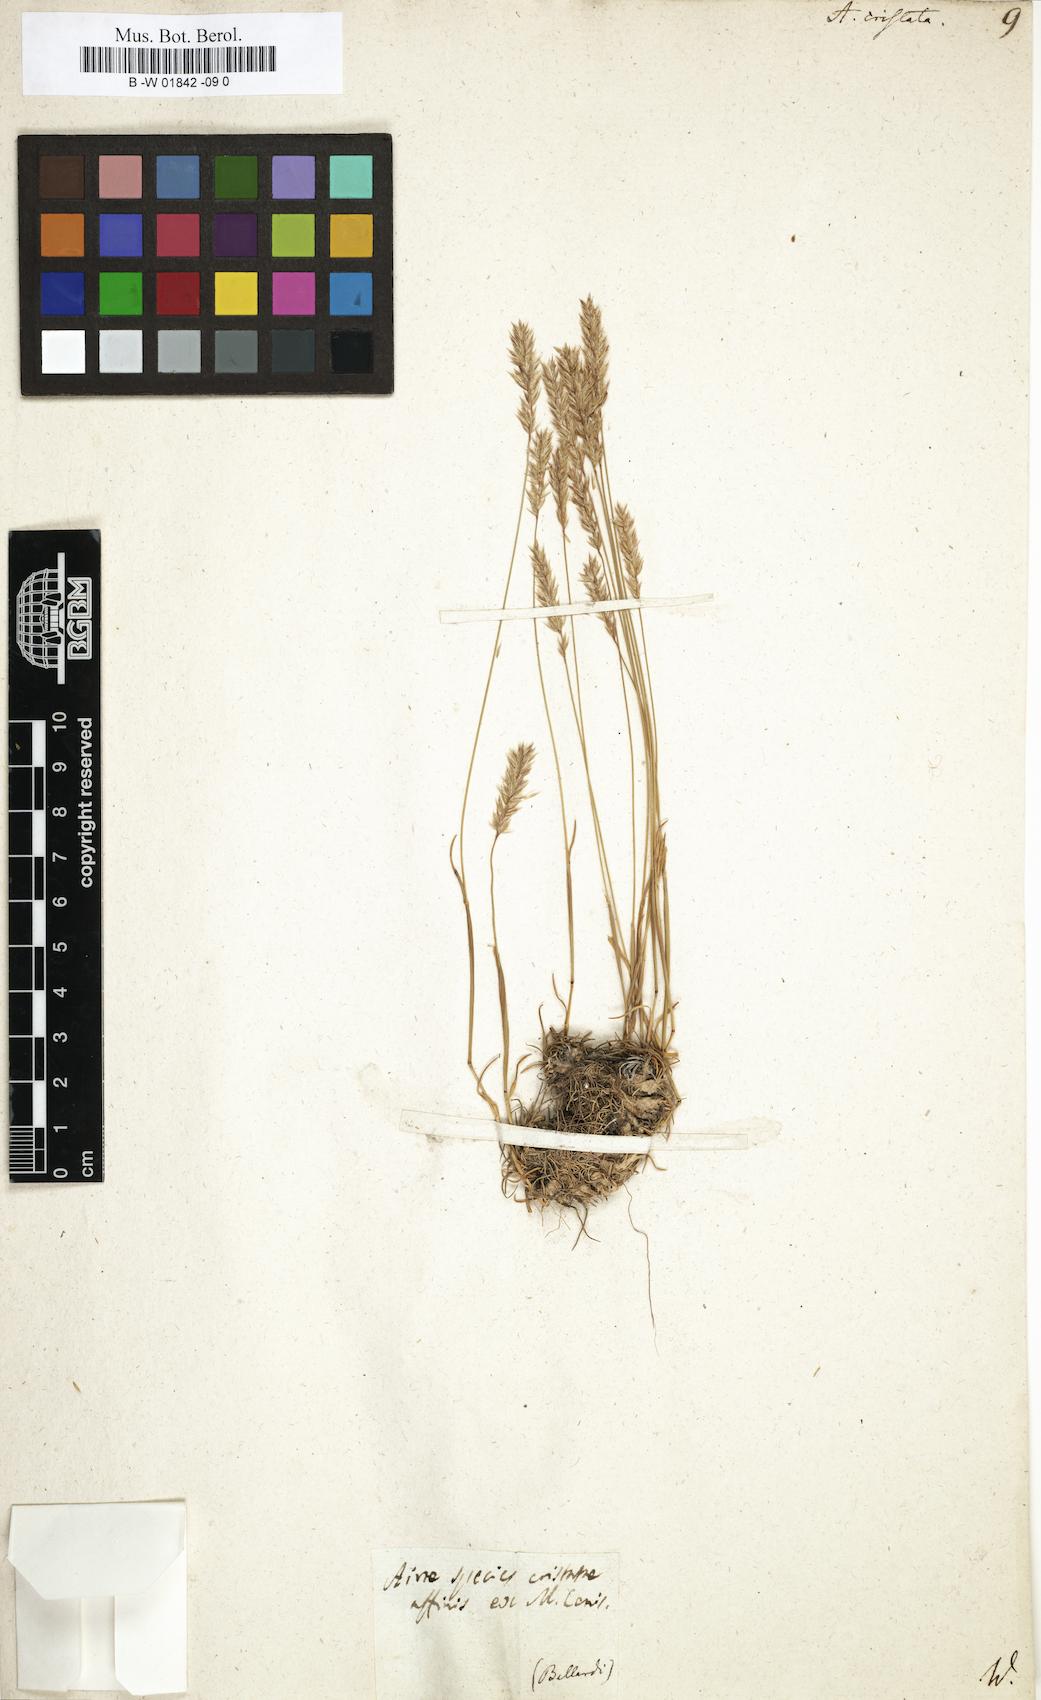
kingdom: Plantae
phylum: Tracheophyta
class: Liliopsida
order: Poales
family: Poaceae
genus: Koeleria
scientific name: Koeleria macrantha
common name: Crested hair-grass
